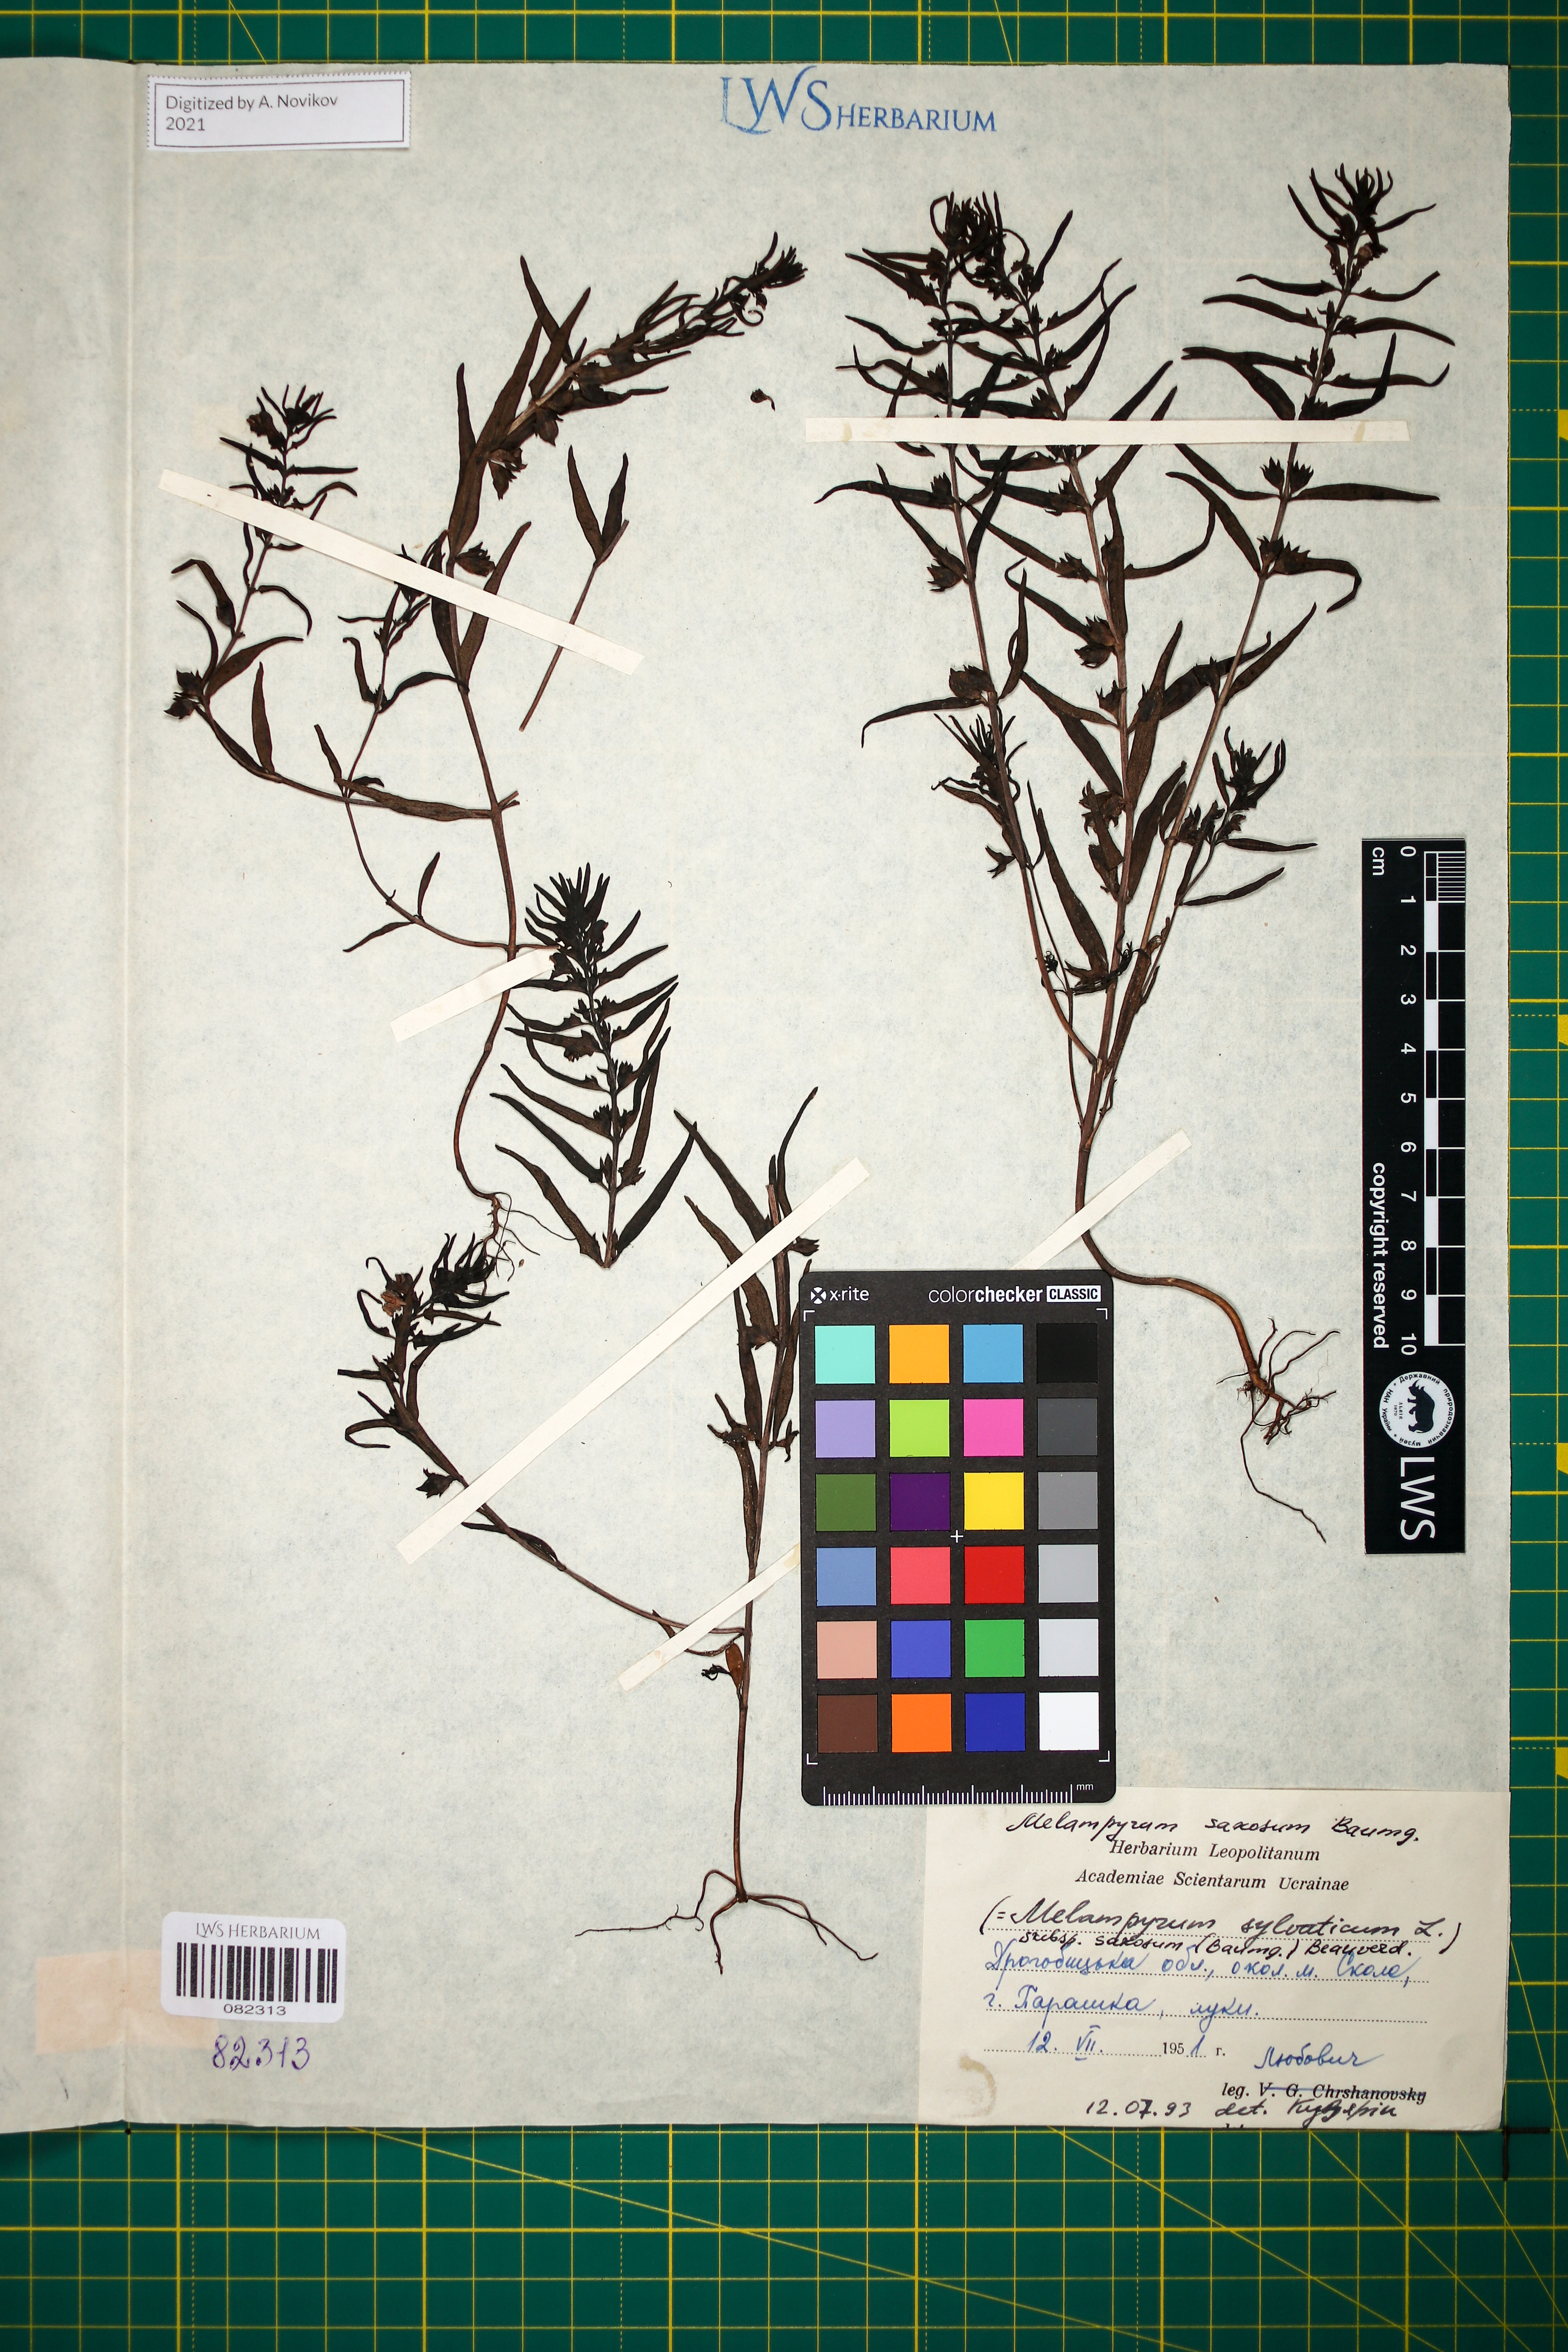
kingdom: Plantae
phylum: Tracheophyta
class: Magnoliopsida
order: Lamiales
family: Orobanchaceae
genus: Melampyrum
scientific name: Melampyrum saxosum
